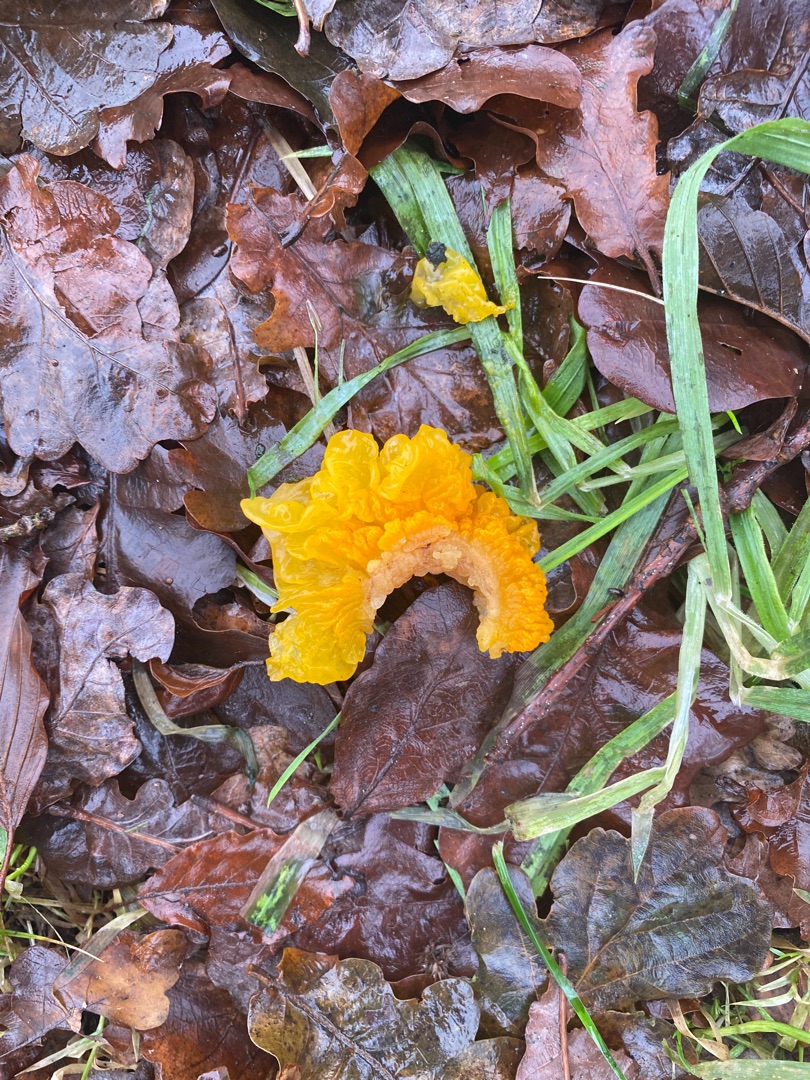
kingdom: Fungi
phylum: Basidiomycota
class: Tremellomycetes
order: Tremellales
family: Tremellaceae
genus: Tremella
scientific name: Tremella mesenterica
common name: Gul bævresvamp
